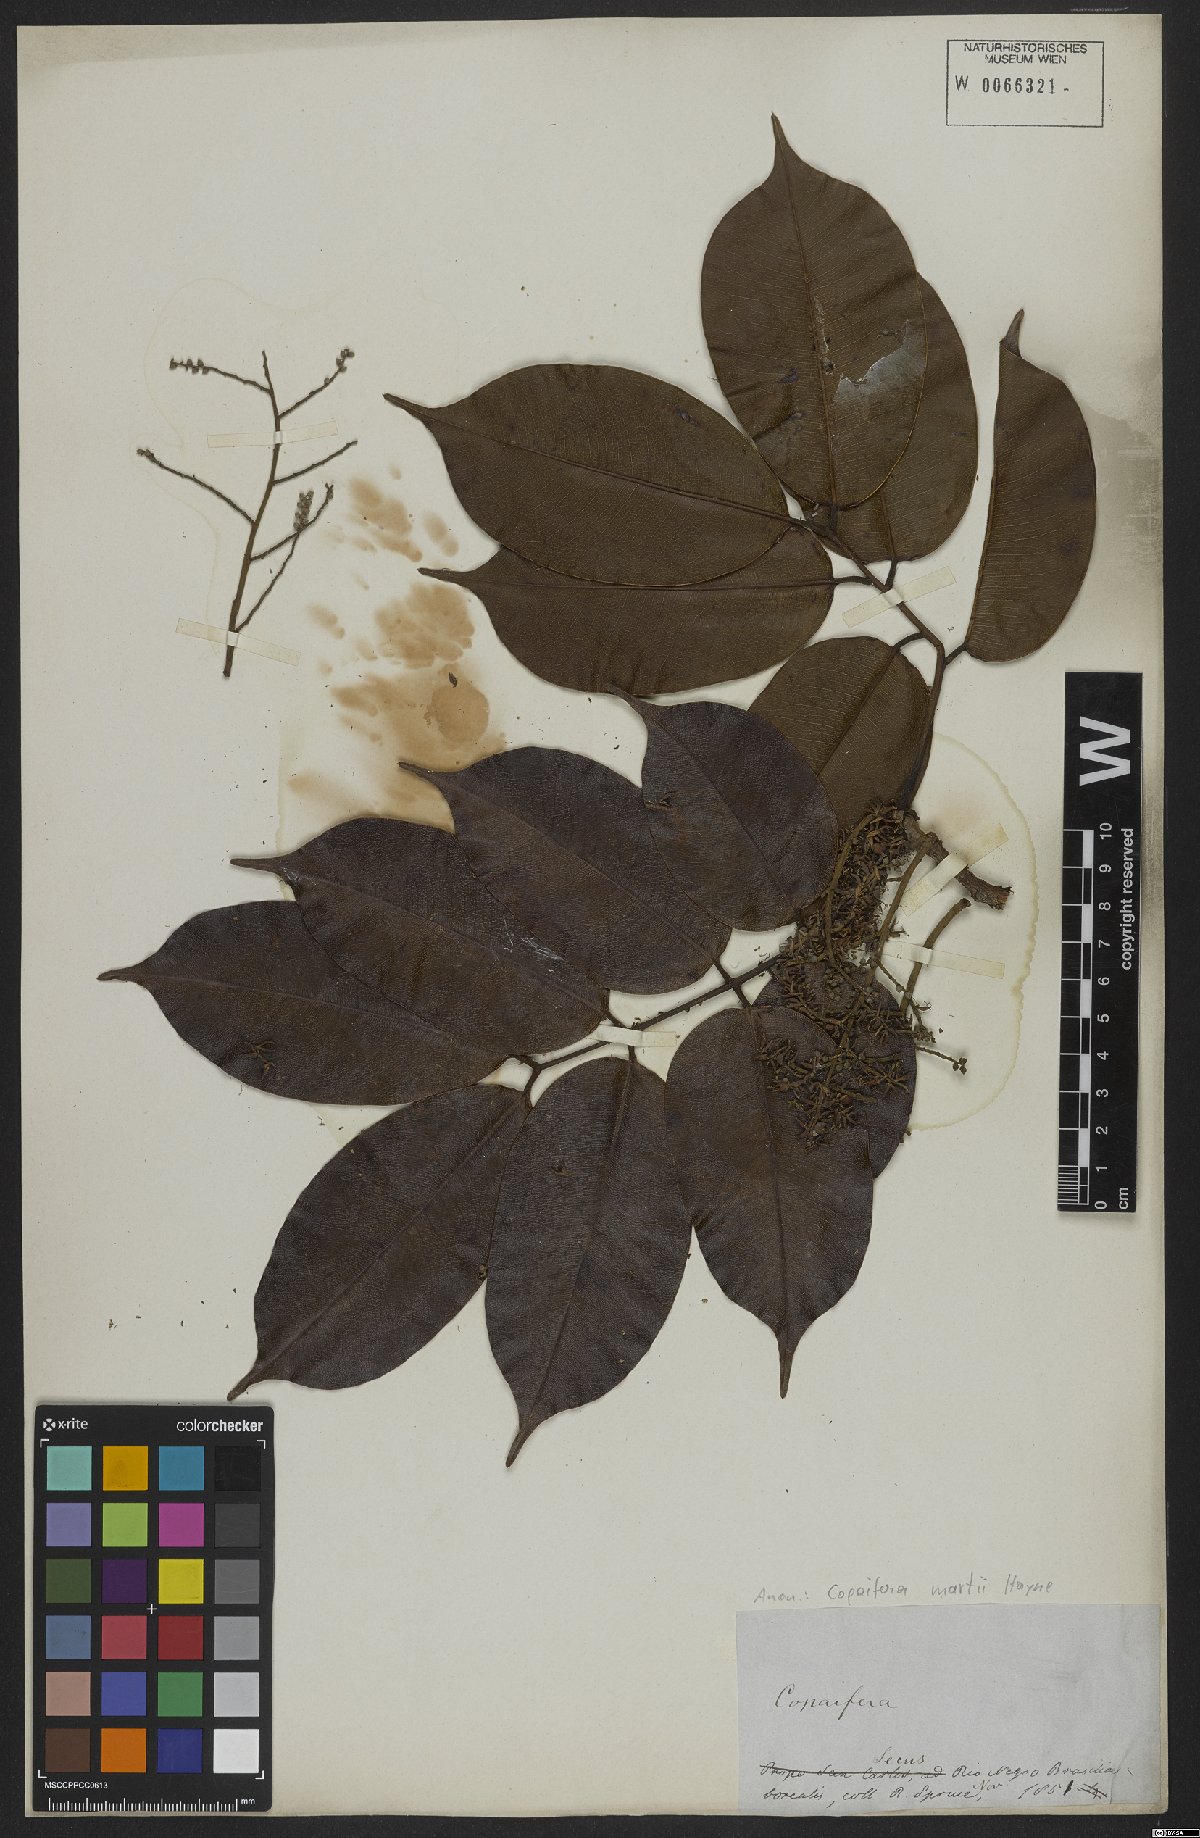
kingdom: Plantae
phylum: Tracheophyta
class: Magnoliopsida
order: Fabales
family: Fabaceae
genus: Copaifera
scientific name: Copaifera martii
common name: Copaiba
